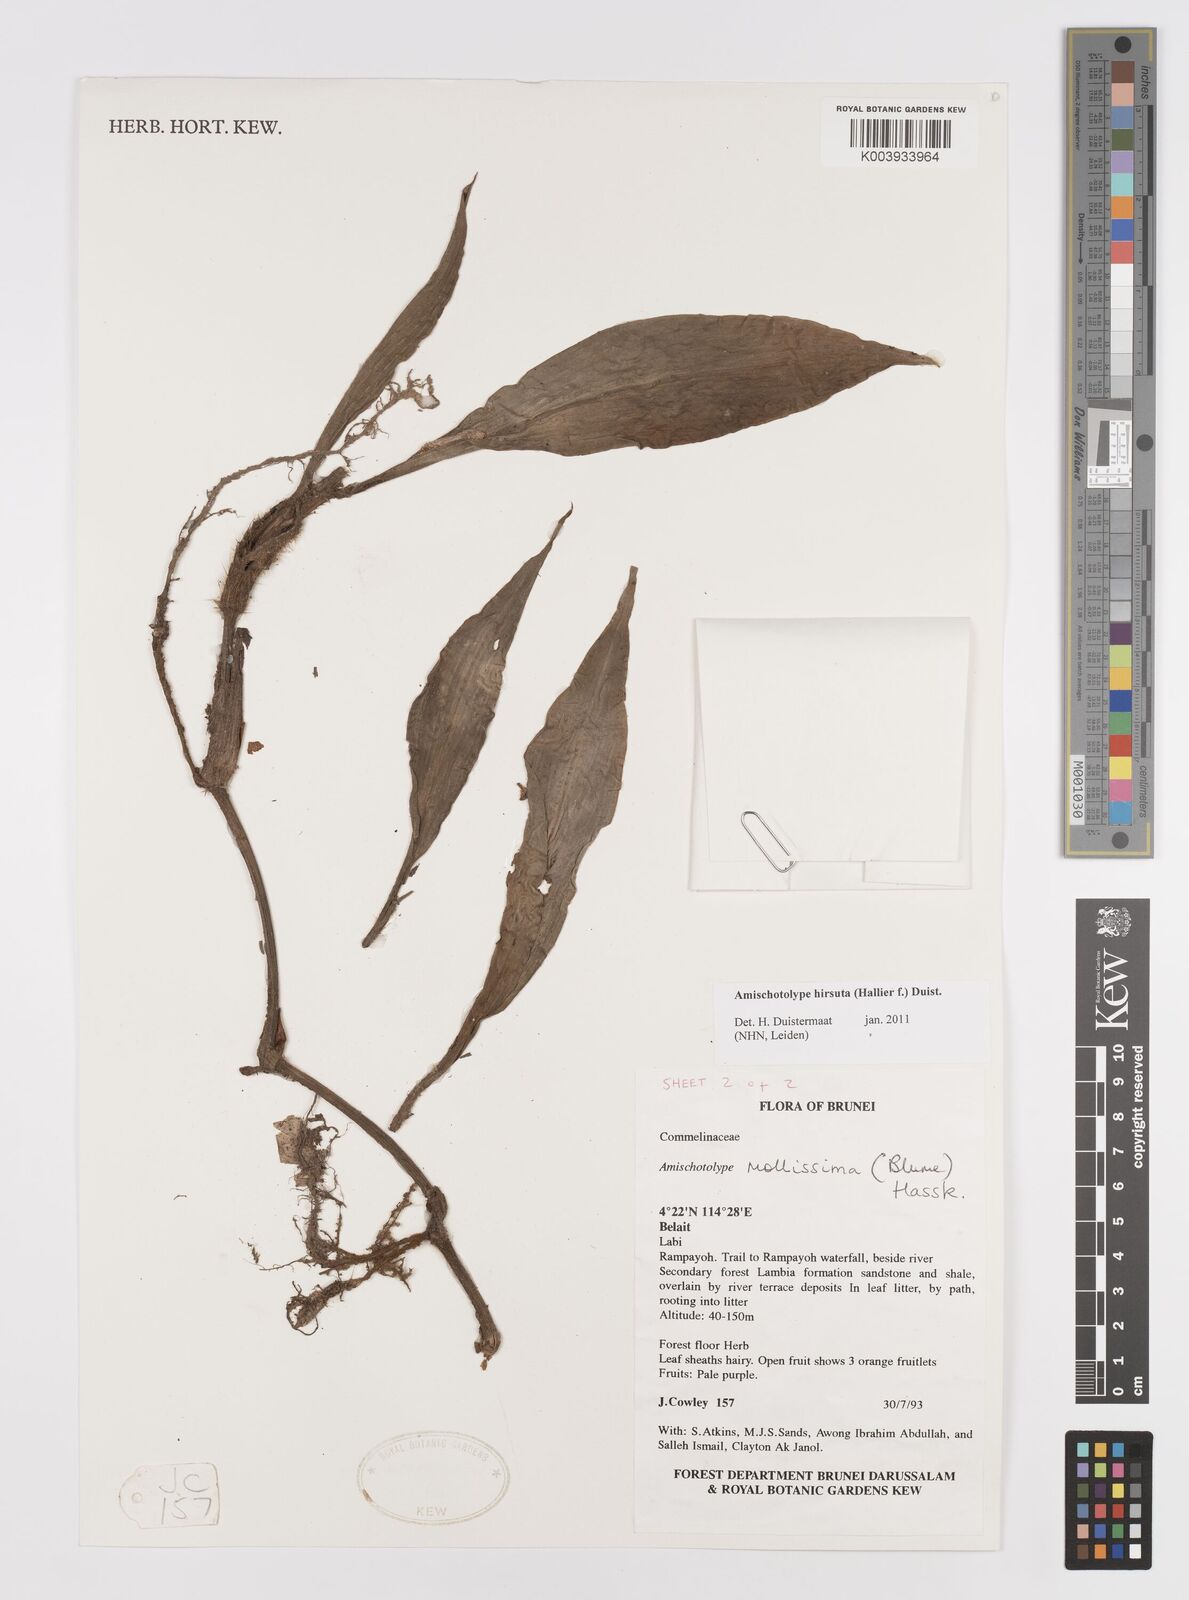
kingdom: Plantae
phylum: Tracheophyta
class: Liliopsida
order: Commelinales
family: Commelinaceae
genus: Amischotolype
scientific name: Amischotolype hirsuta
